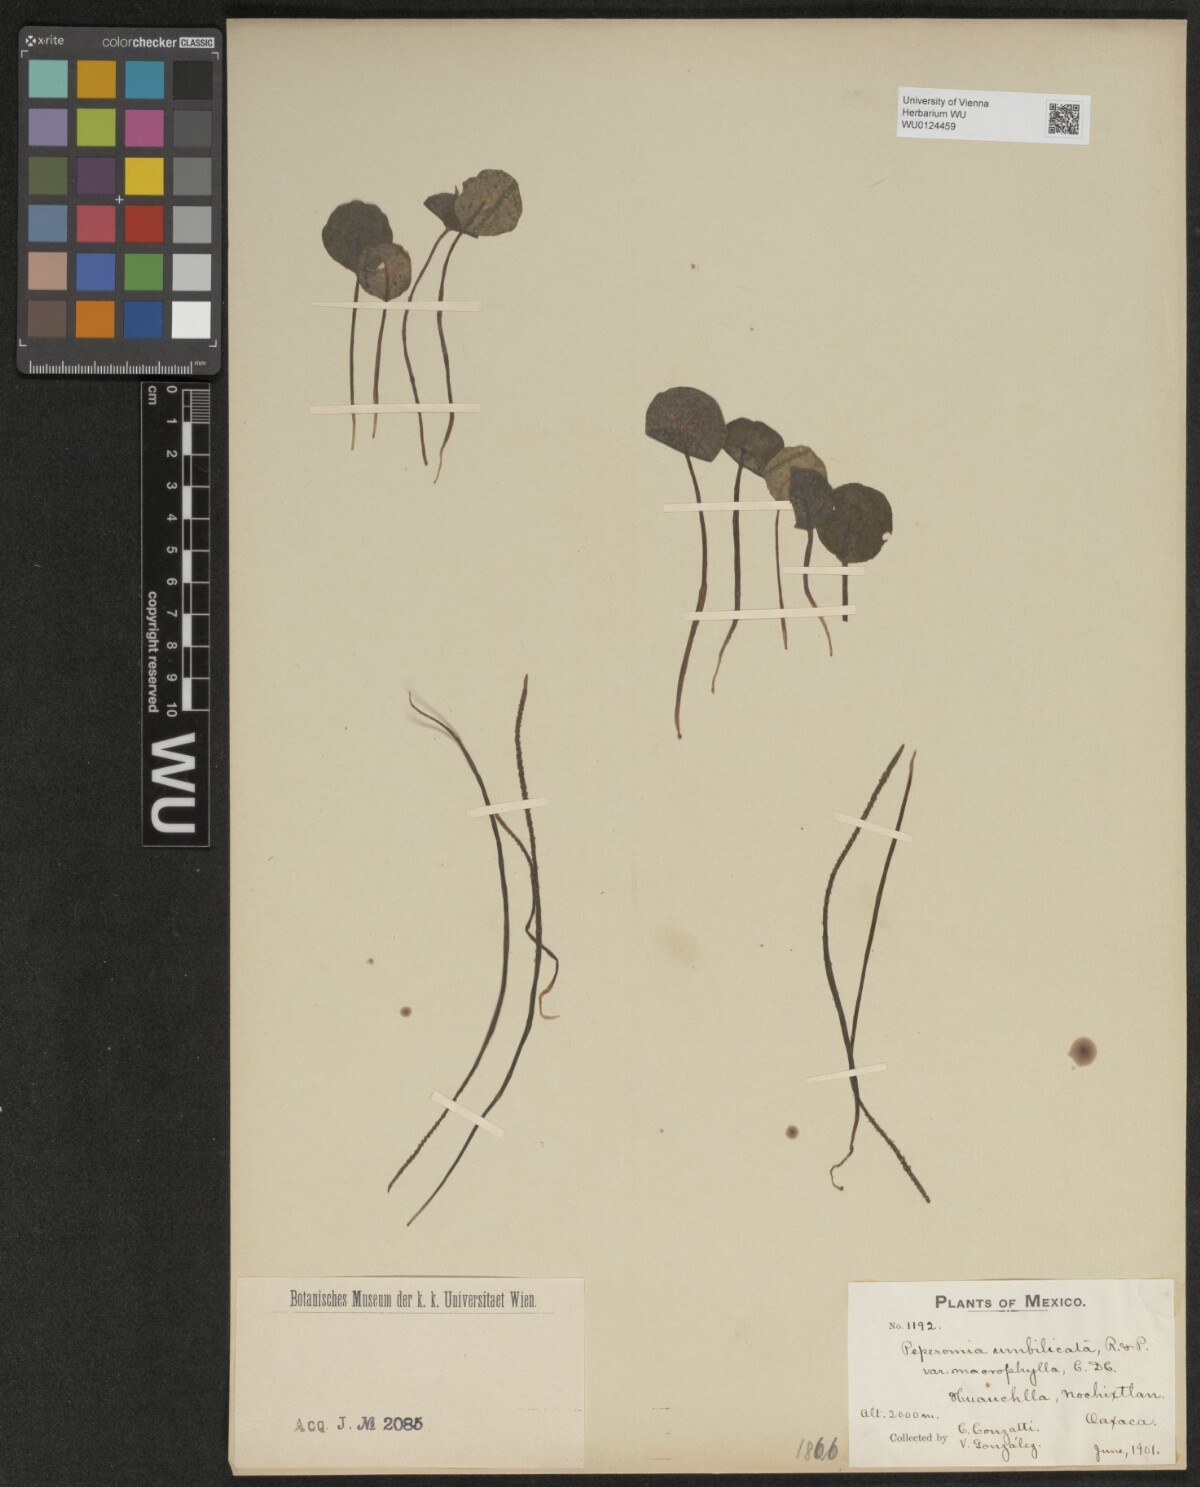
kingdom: Plantae
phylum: Tracheophyta
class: Magnoliopsida
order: Piperales
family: Piperaceae
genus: Peperomia
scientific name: Peperomia umbilicata
